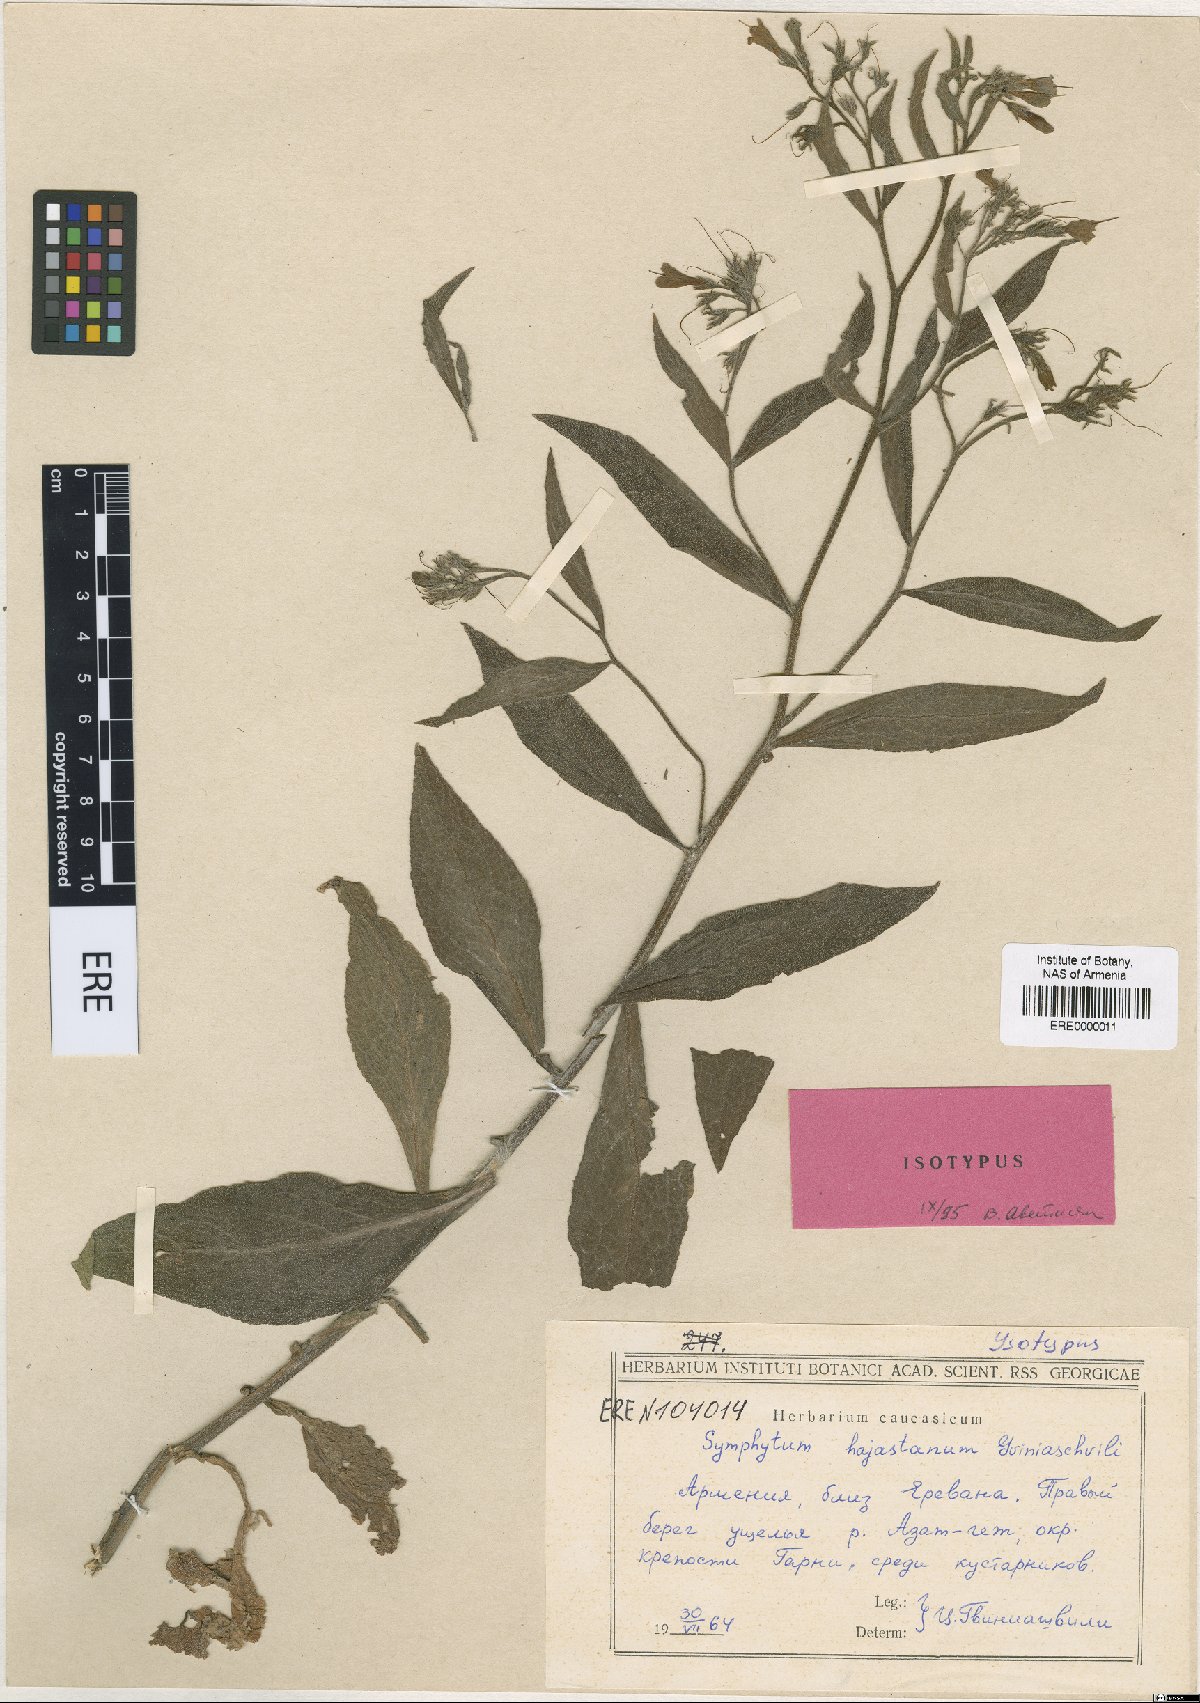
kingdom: Plantae
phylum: Tracheophyta
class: Magnoliopsida
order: Boraginales
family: Boraginaceae
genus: Symphytum
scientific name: Symphytum hajastanum
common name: Hajastanian comfrey
